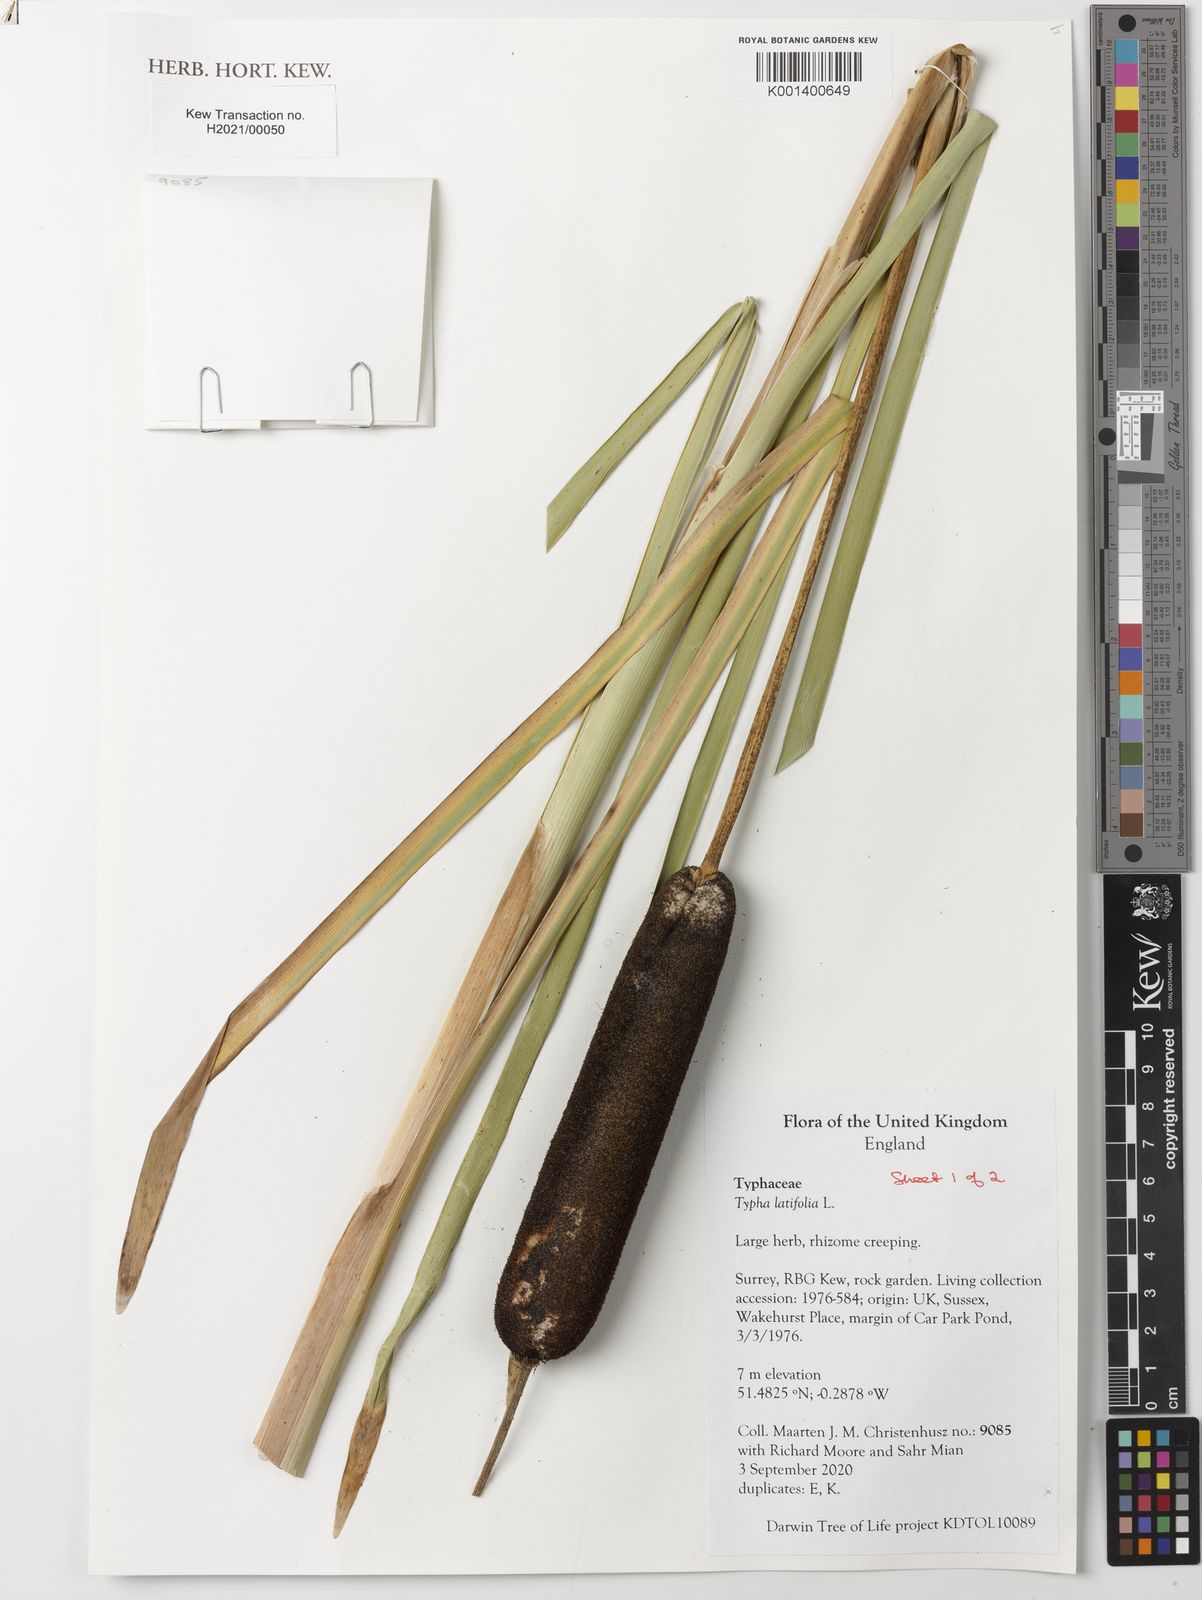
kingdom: Plantae
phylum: Tracheophyta
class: Liliopsida
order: Poales
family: Typhaceae
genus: Typha
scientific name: Typha latifolia
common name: Broadleaf cattail
